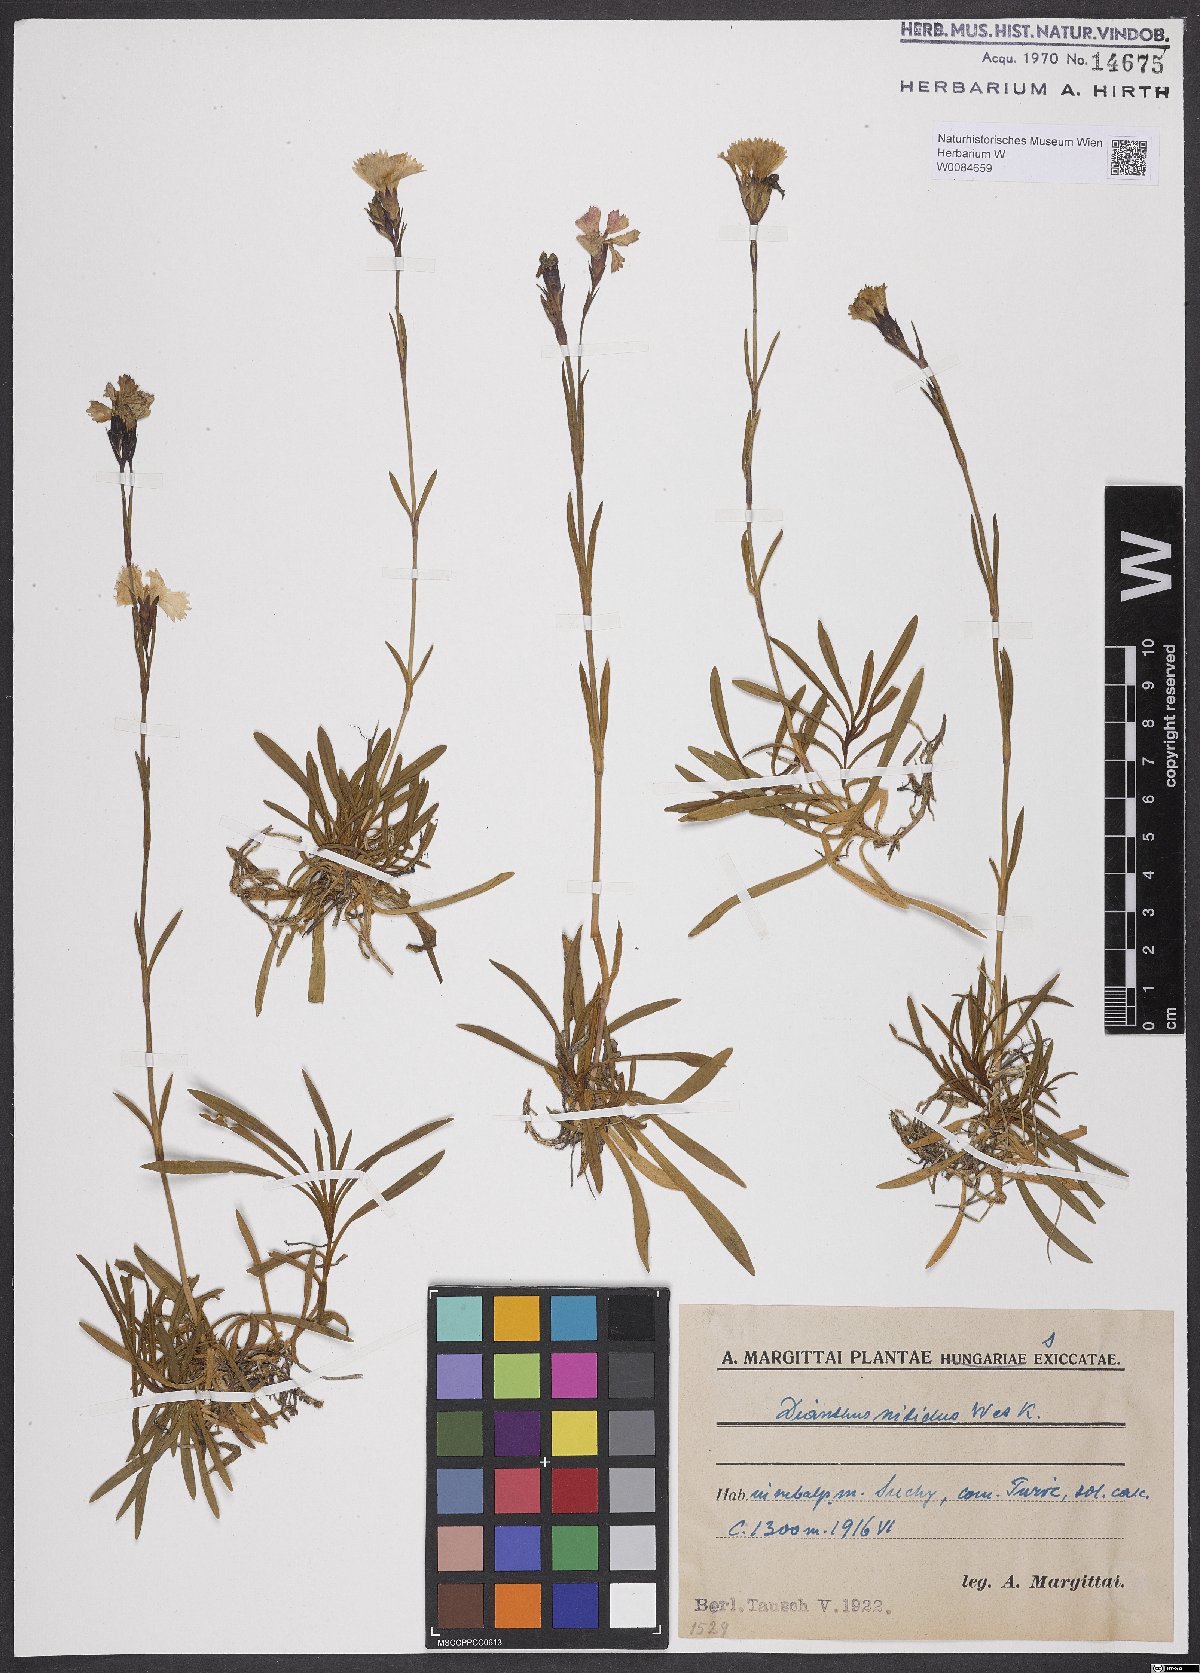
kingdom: Plantae
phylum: Tracheophyta
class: Magnoliopsida
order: Caryophyllales
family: Caryophyllaceae
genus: Dianthus
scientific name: Dianthus nitidus
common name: Carpathian glossy pink
